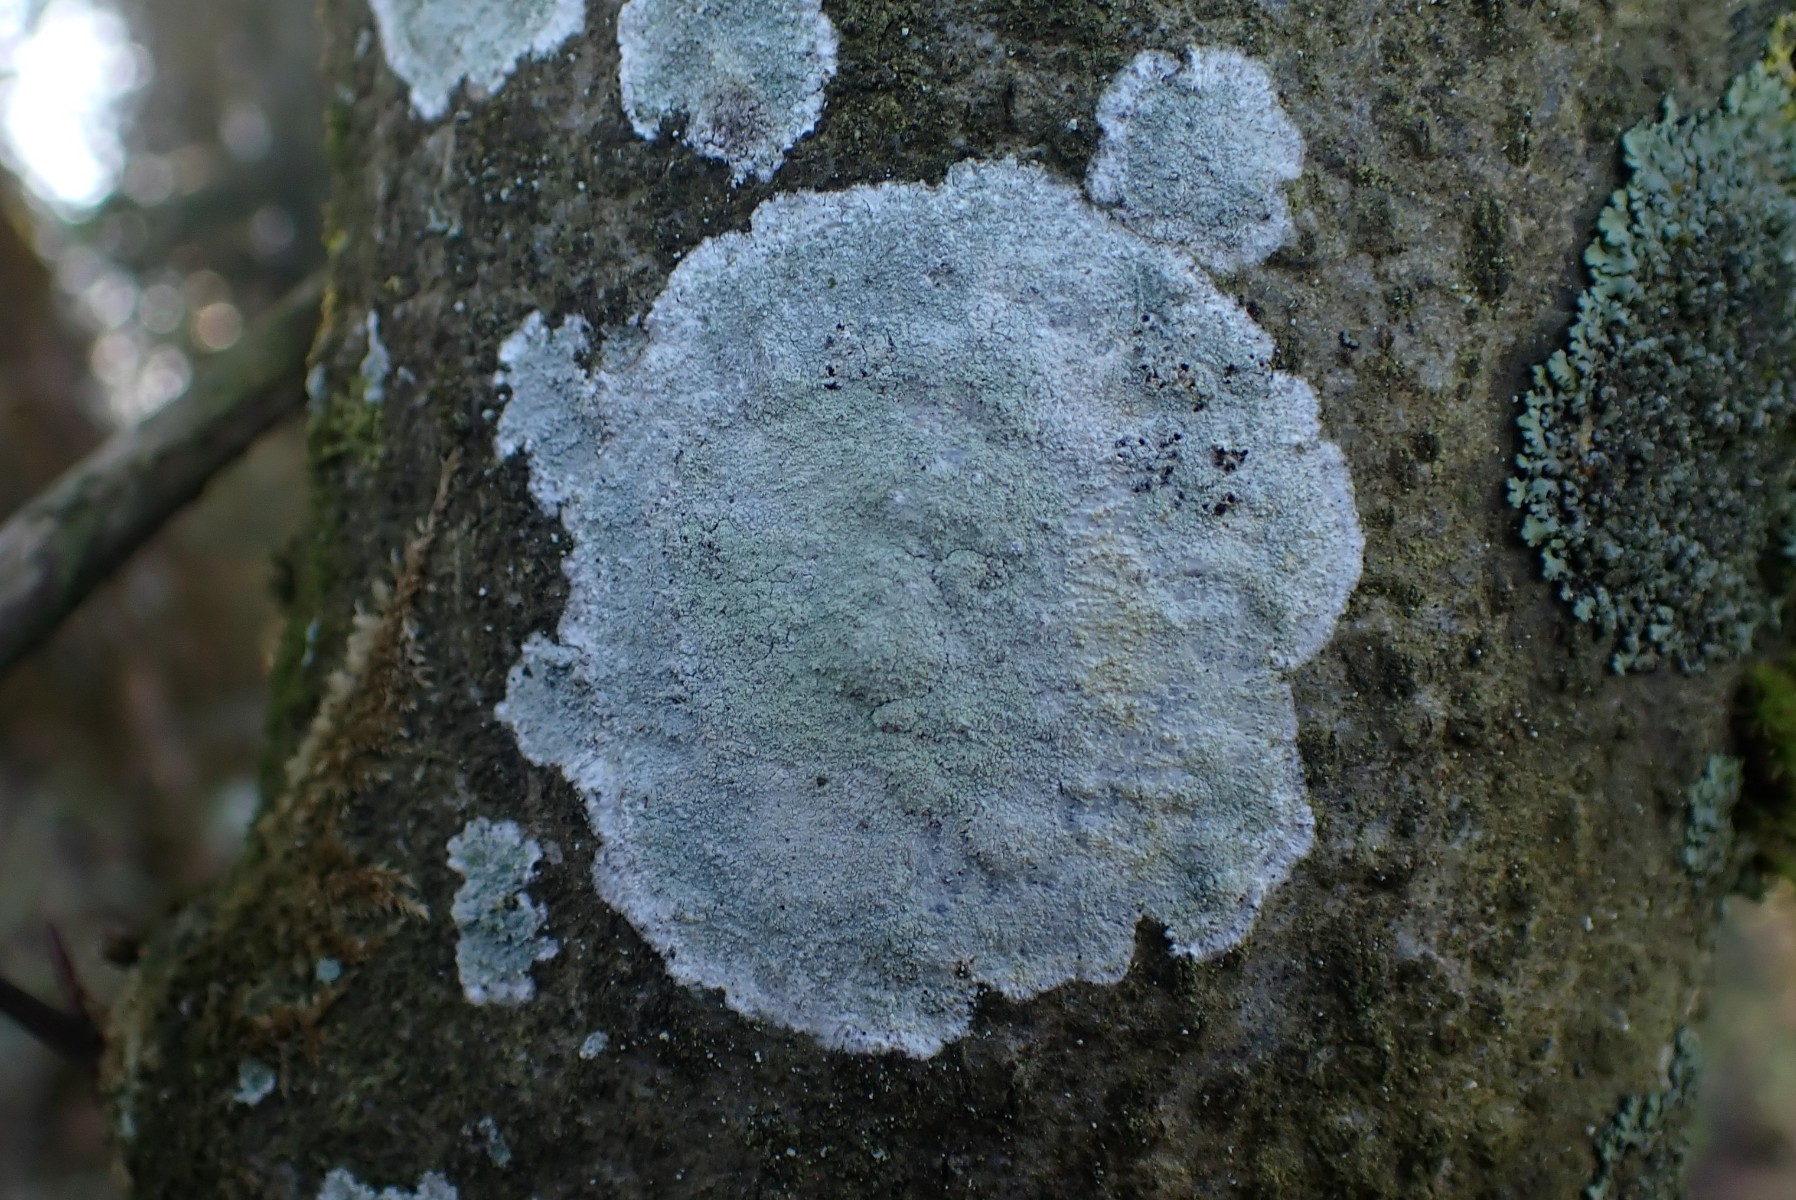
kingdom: Fungi
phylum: Ascomycota
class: Lecanoromycetes
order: Ostropales
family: Phlyctidaceae
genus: Phlyctis
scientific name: Phlyctis argena
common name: almindelig sølvlav
